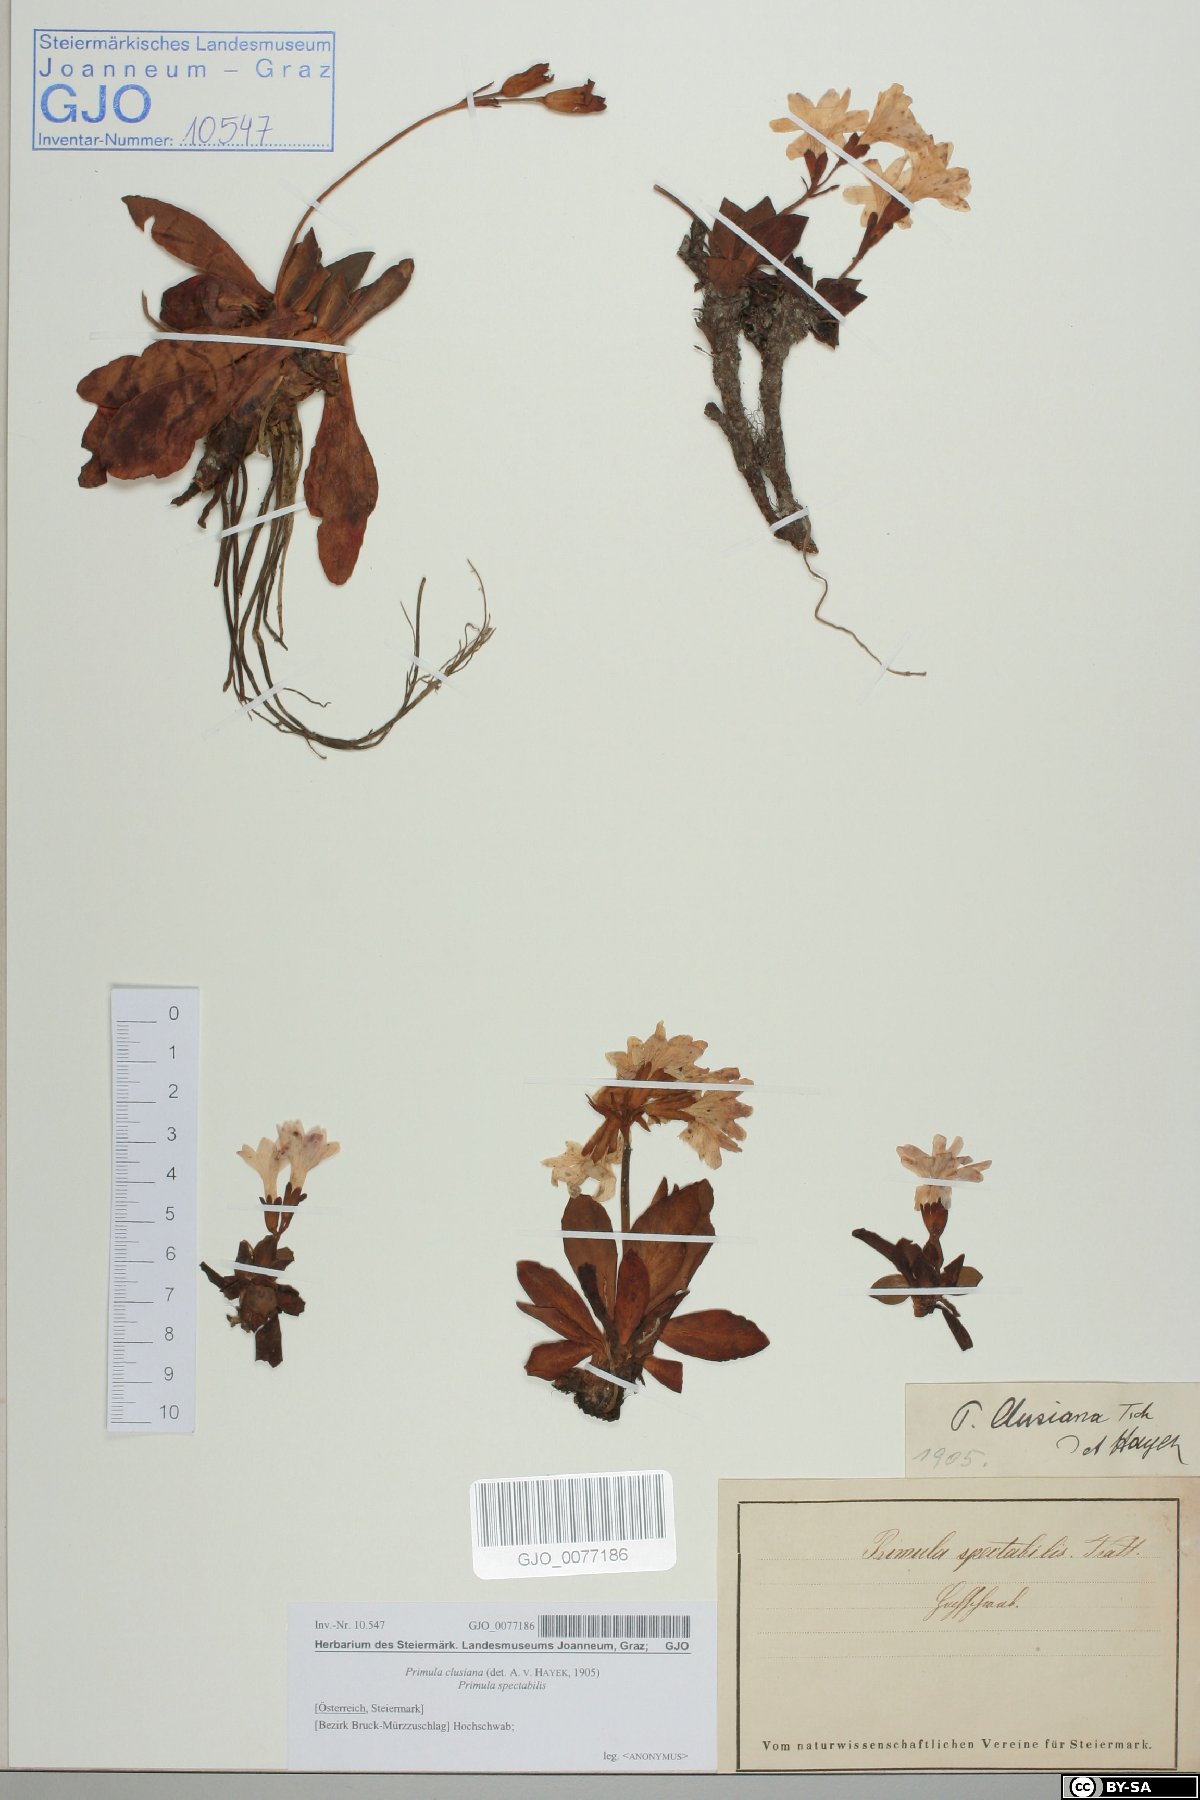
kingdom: Plantae
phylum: Tracheophyta
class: Magnoliopsida
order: Ericales
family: Primulaceae
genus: Primula
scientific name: Primula clusiana
